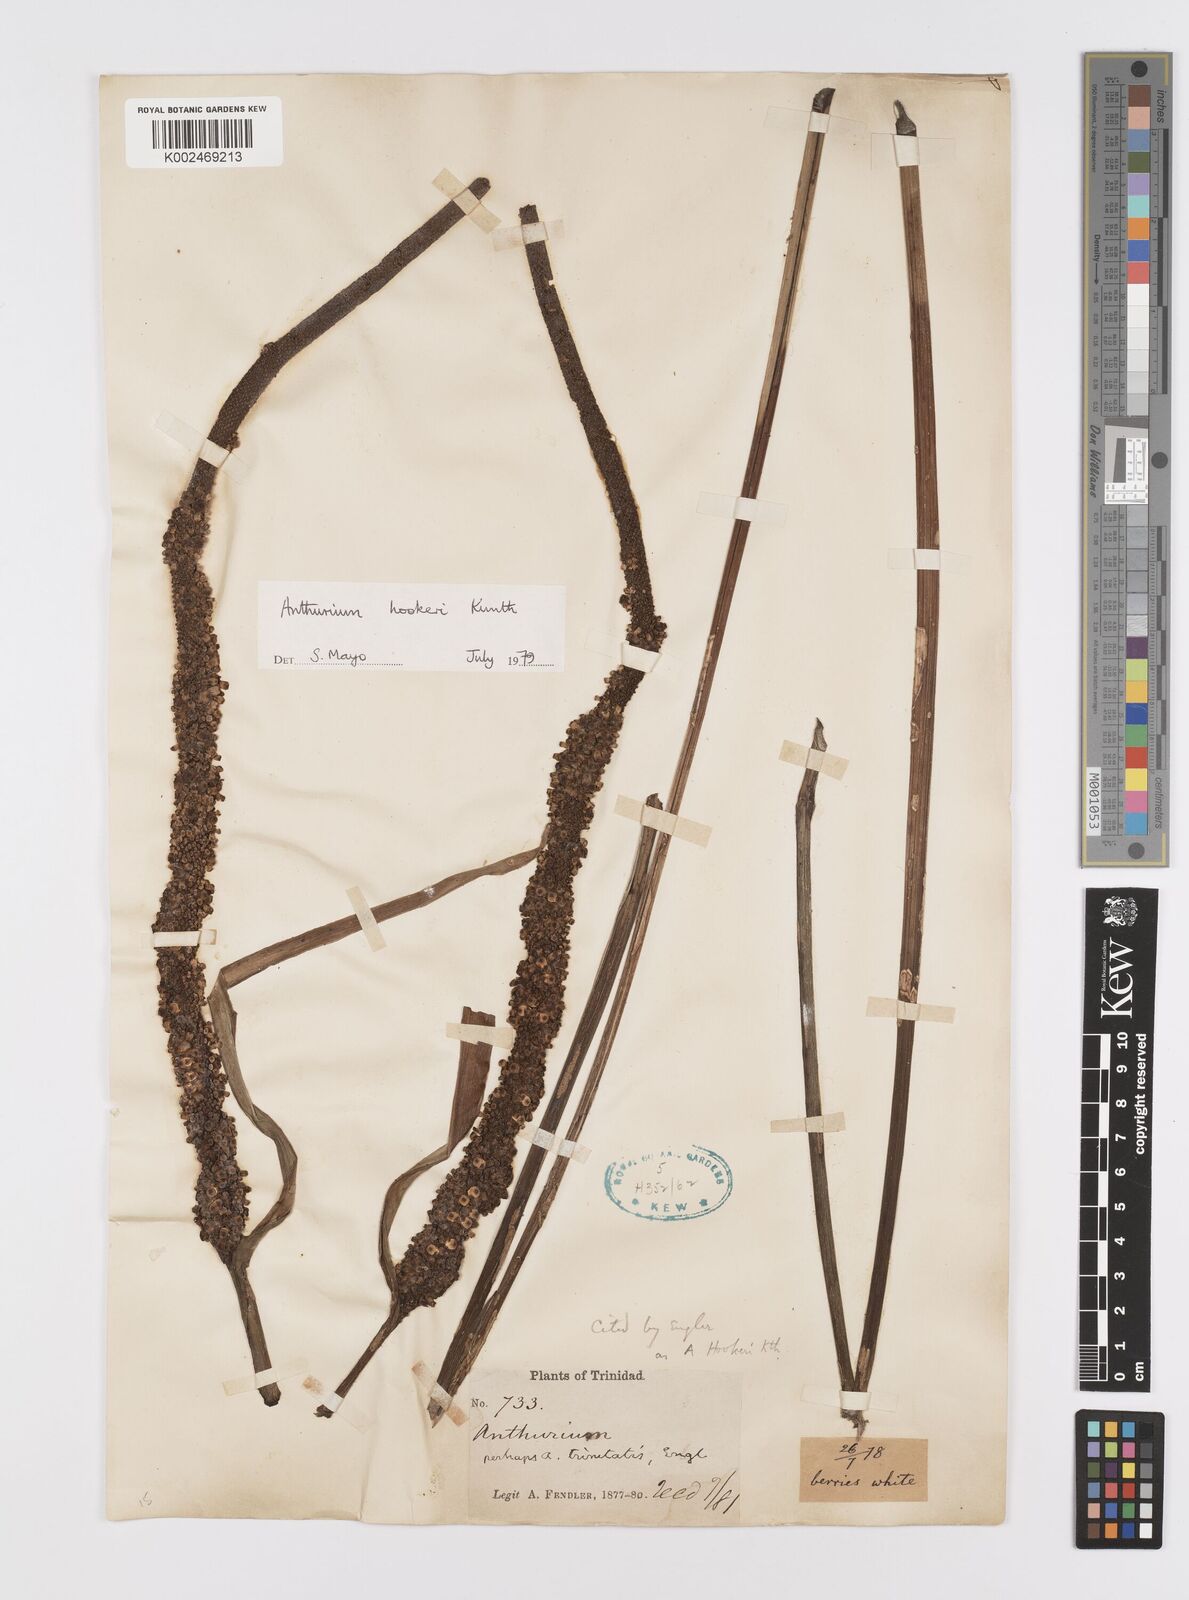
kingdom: Plantae
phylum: Tracheophyta
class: Liliopsida
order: Alismatales
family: Araceae
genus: Anthurium
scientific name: Anthurium hookeri
